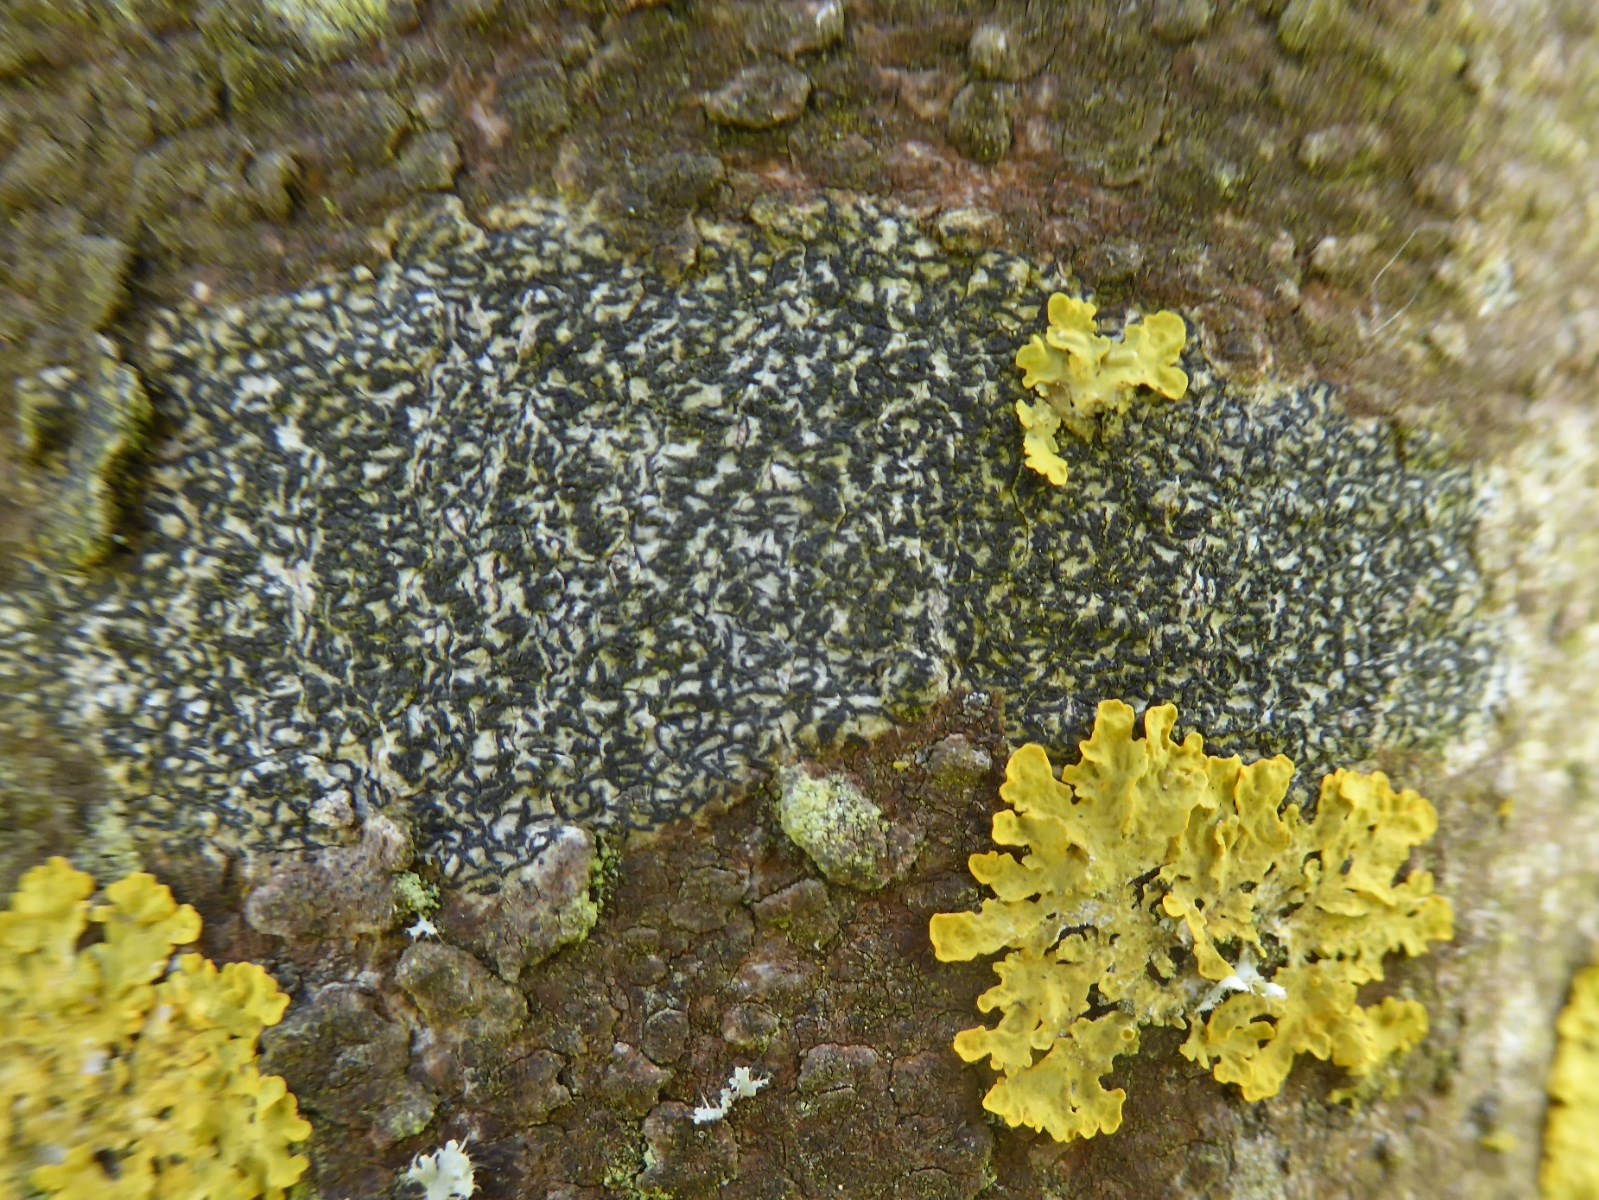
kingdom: Fungi
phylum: Ascomycota
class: Arthoniomycetes
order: Arthoniales
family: Arthoniaceae
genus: Arthonia
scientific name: Arthonia atra
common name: sort bogstavlav
